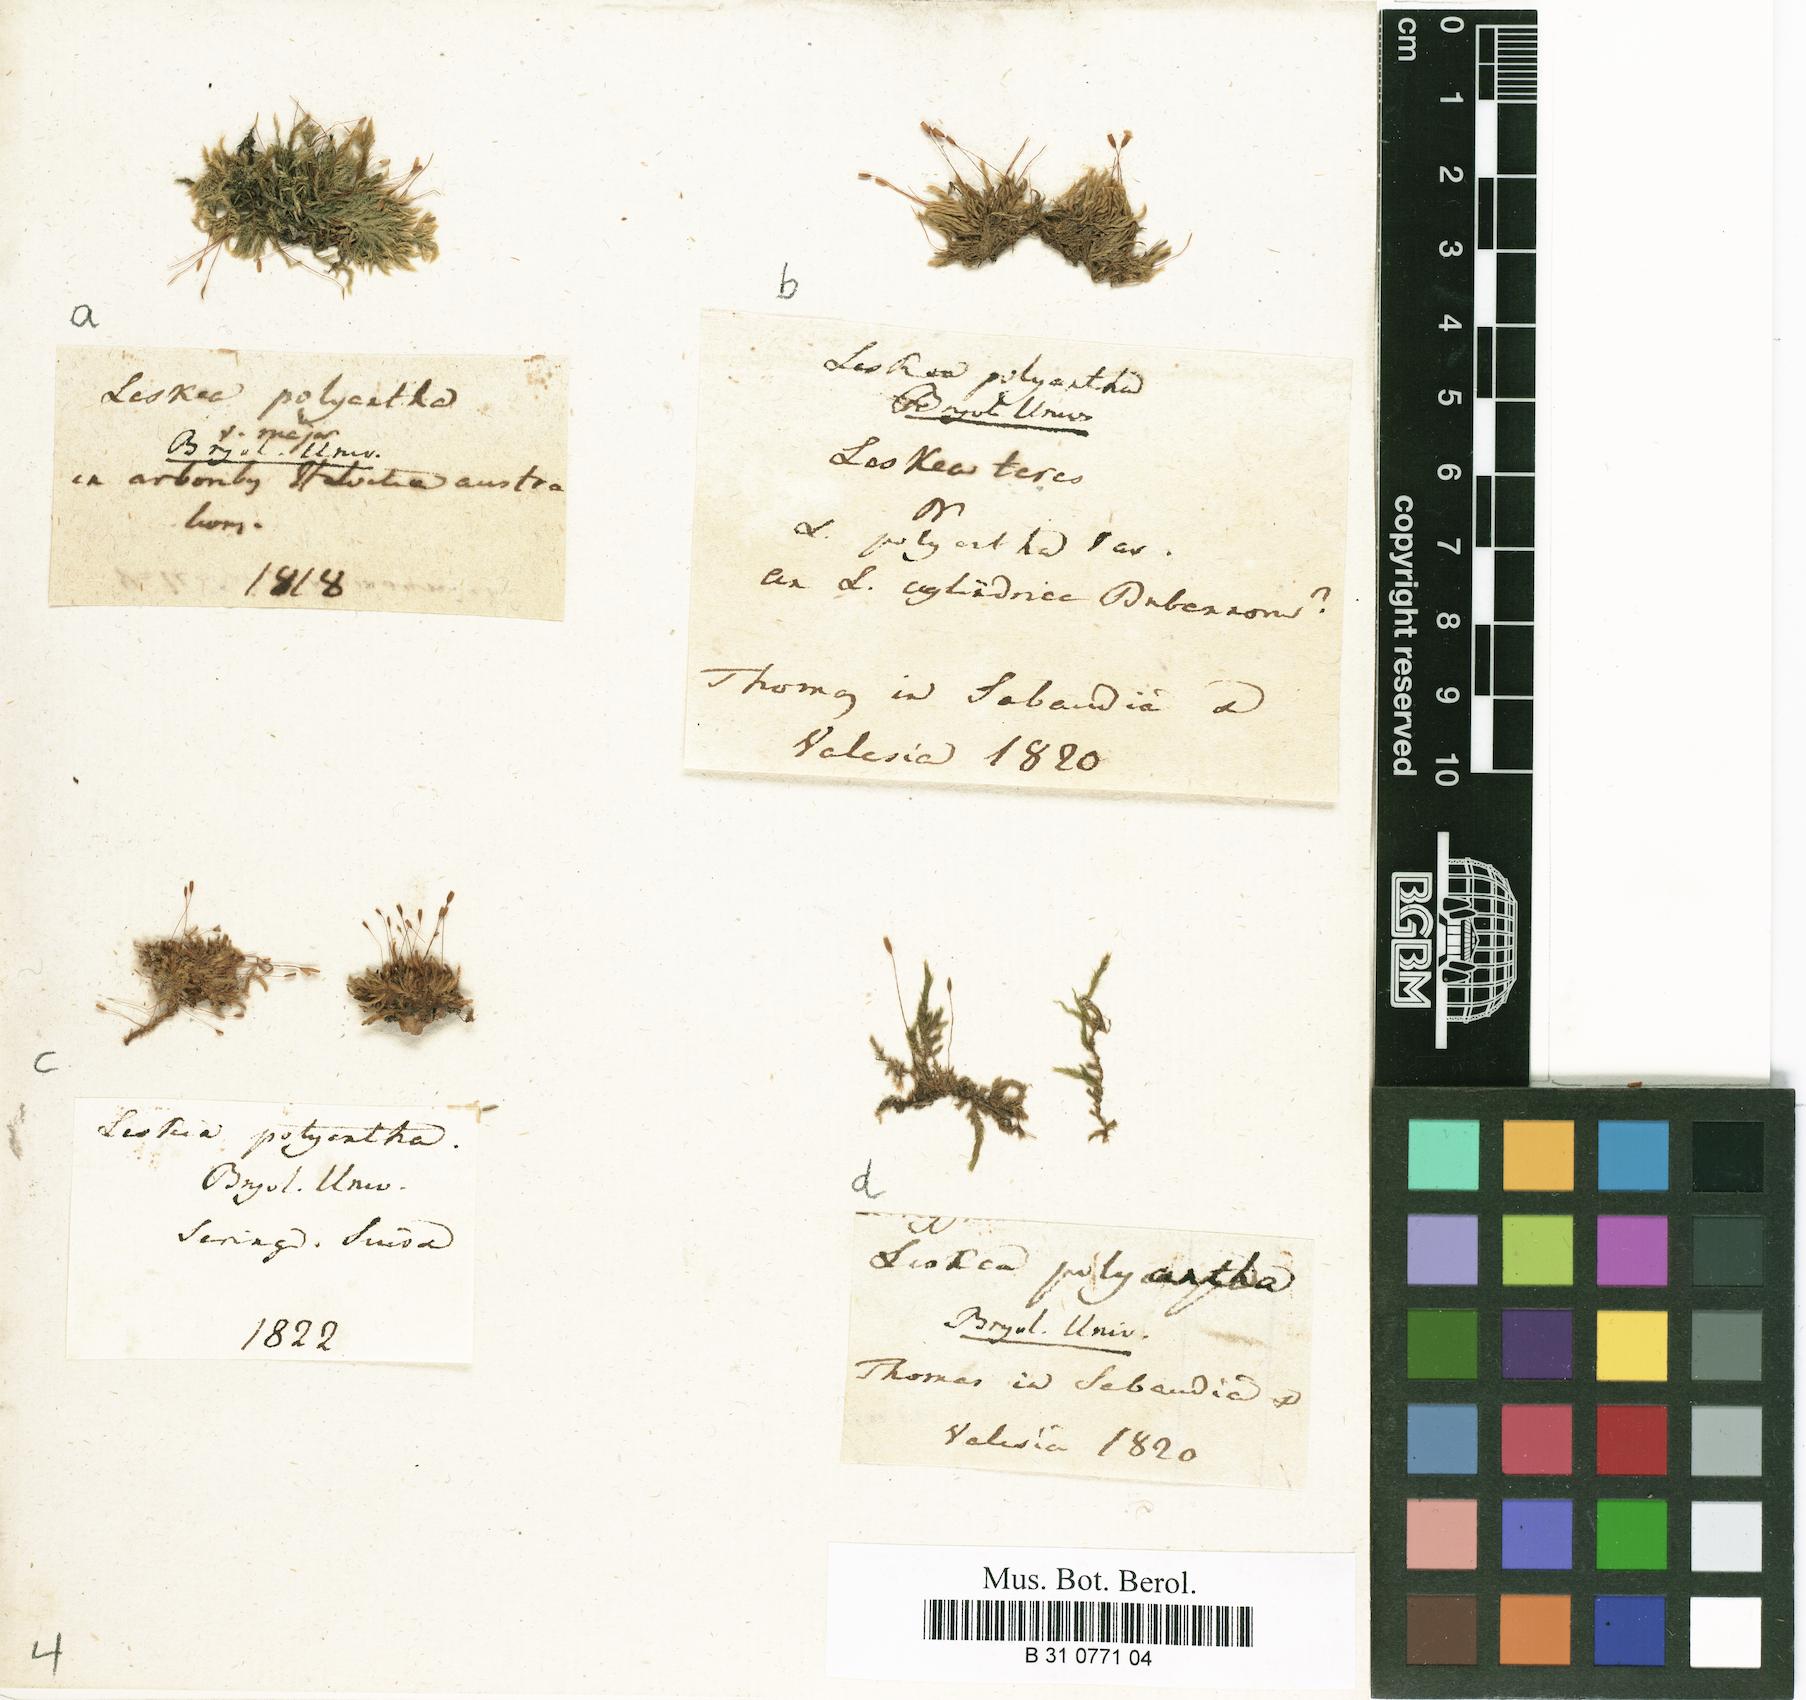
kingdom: Plantae
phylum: Bryophyta
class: Bryopsida
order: Hypnales
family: Pylaisiaceae
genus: Pylaisia
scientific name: Pylaisia polyantha
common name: Many-flowered leskea
